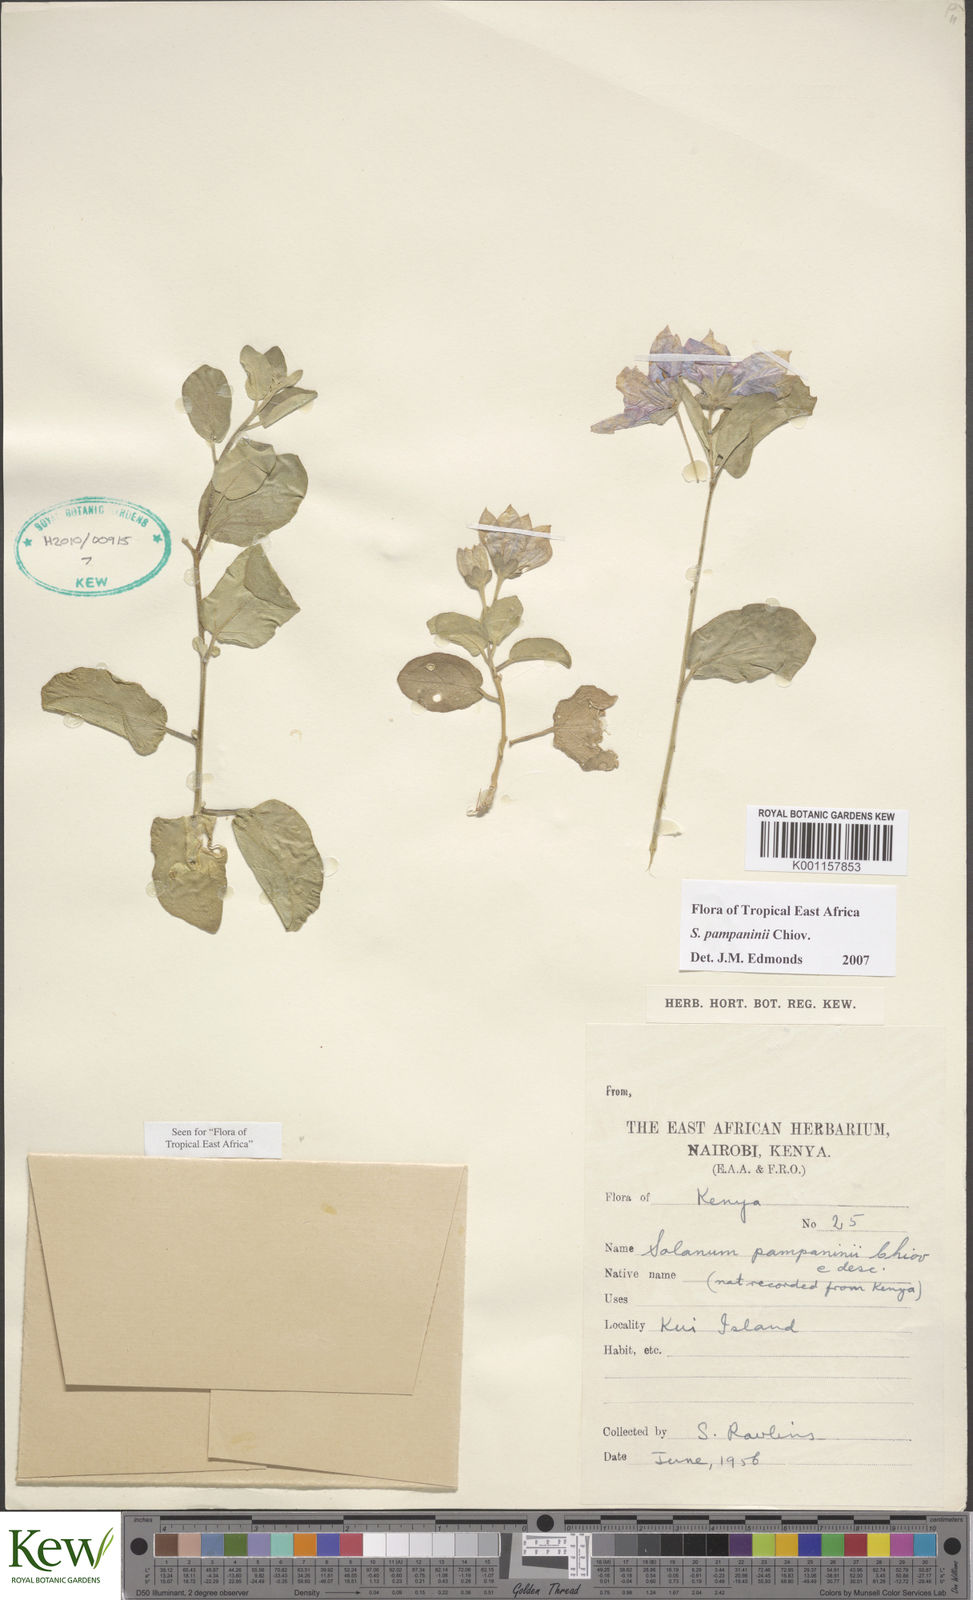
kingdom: Plantae
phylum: Tracheophyta
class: Magnoliopsida
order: Solanales
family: Solanaceae
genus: Solanum
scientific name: Solanum pampaninii
